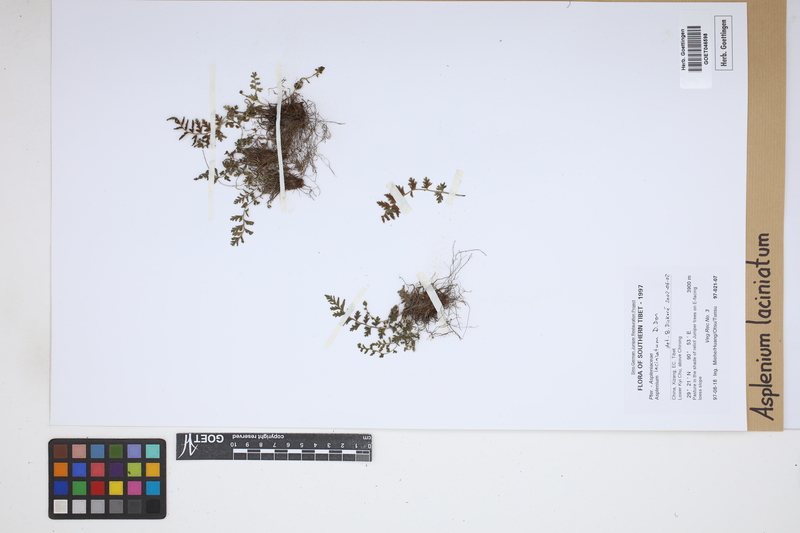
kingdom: Plantae
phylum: Tracheophyta
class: Polypodiopsida
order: Polypodiales
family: Aspleniaceae
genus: Asplenium
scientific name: Asplenium laciniatum
